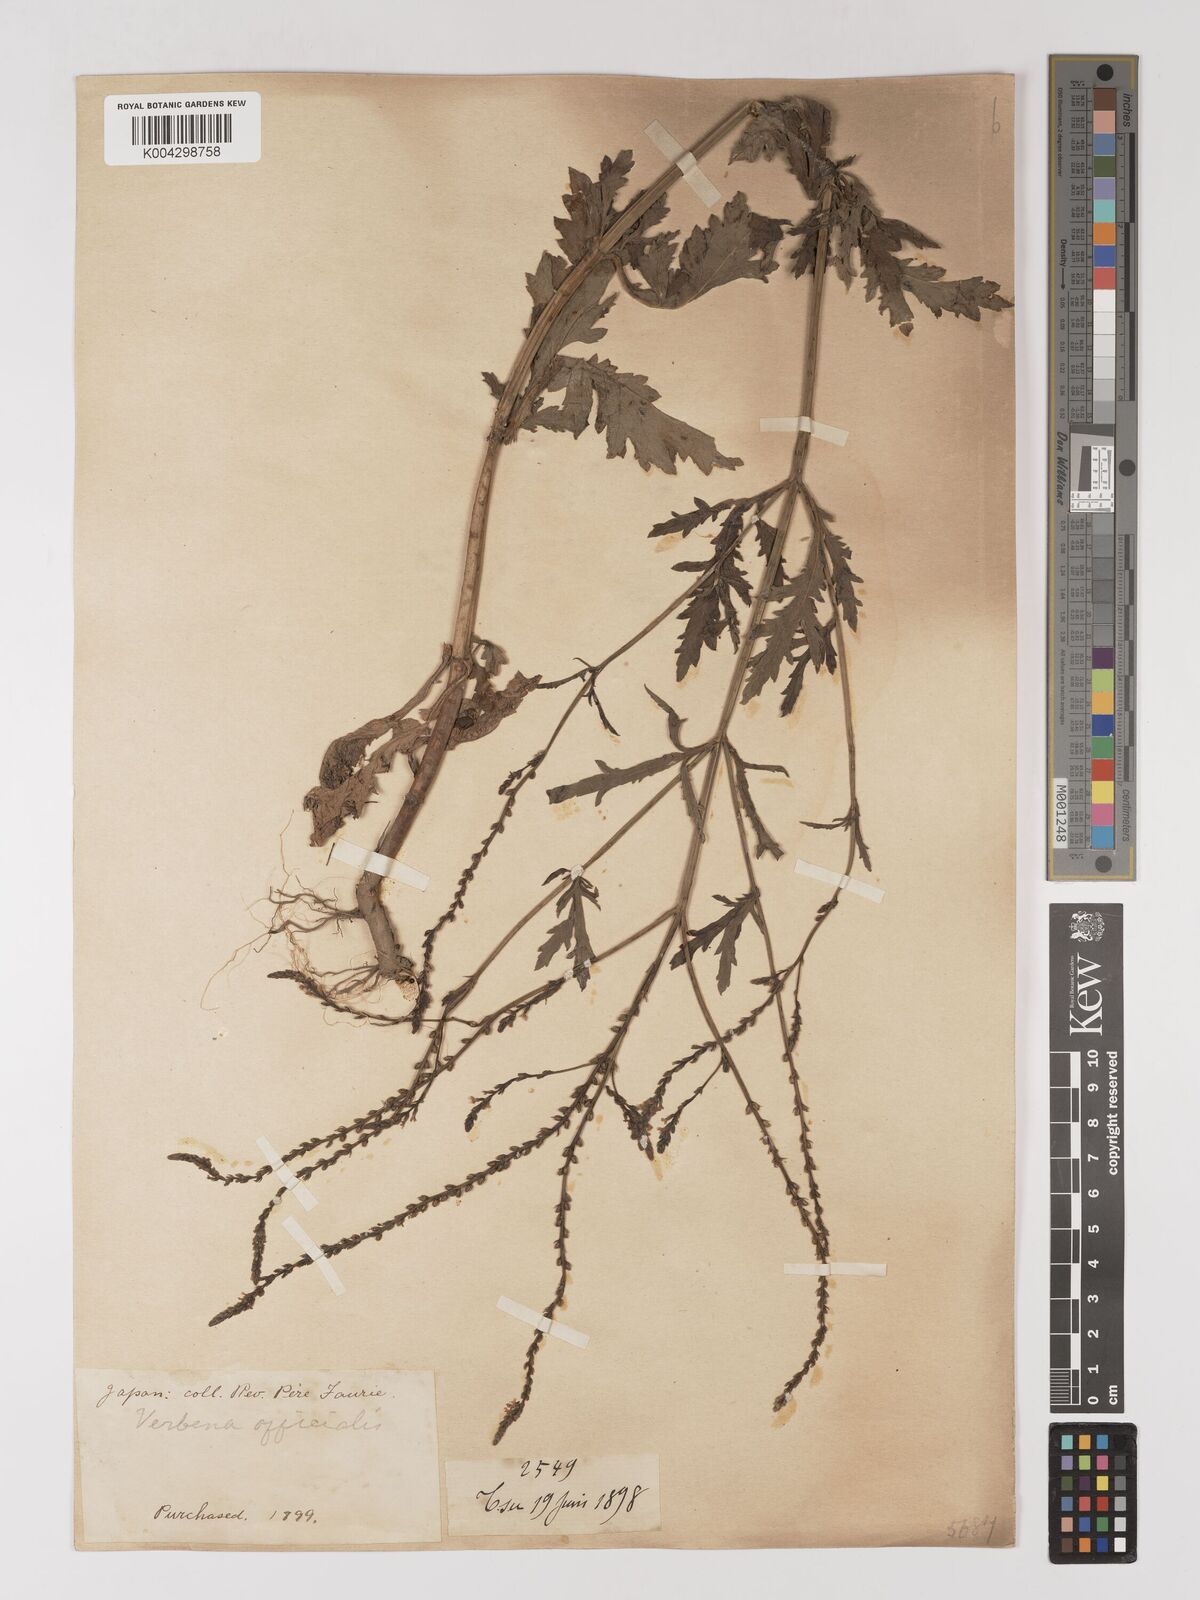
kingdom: Plantae
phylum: Tracheophyta
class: Magnoliopsida
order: Lamiales
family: Verbenaceae
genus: Verbena
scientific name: Verbena officinalis
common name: Vervain
